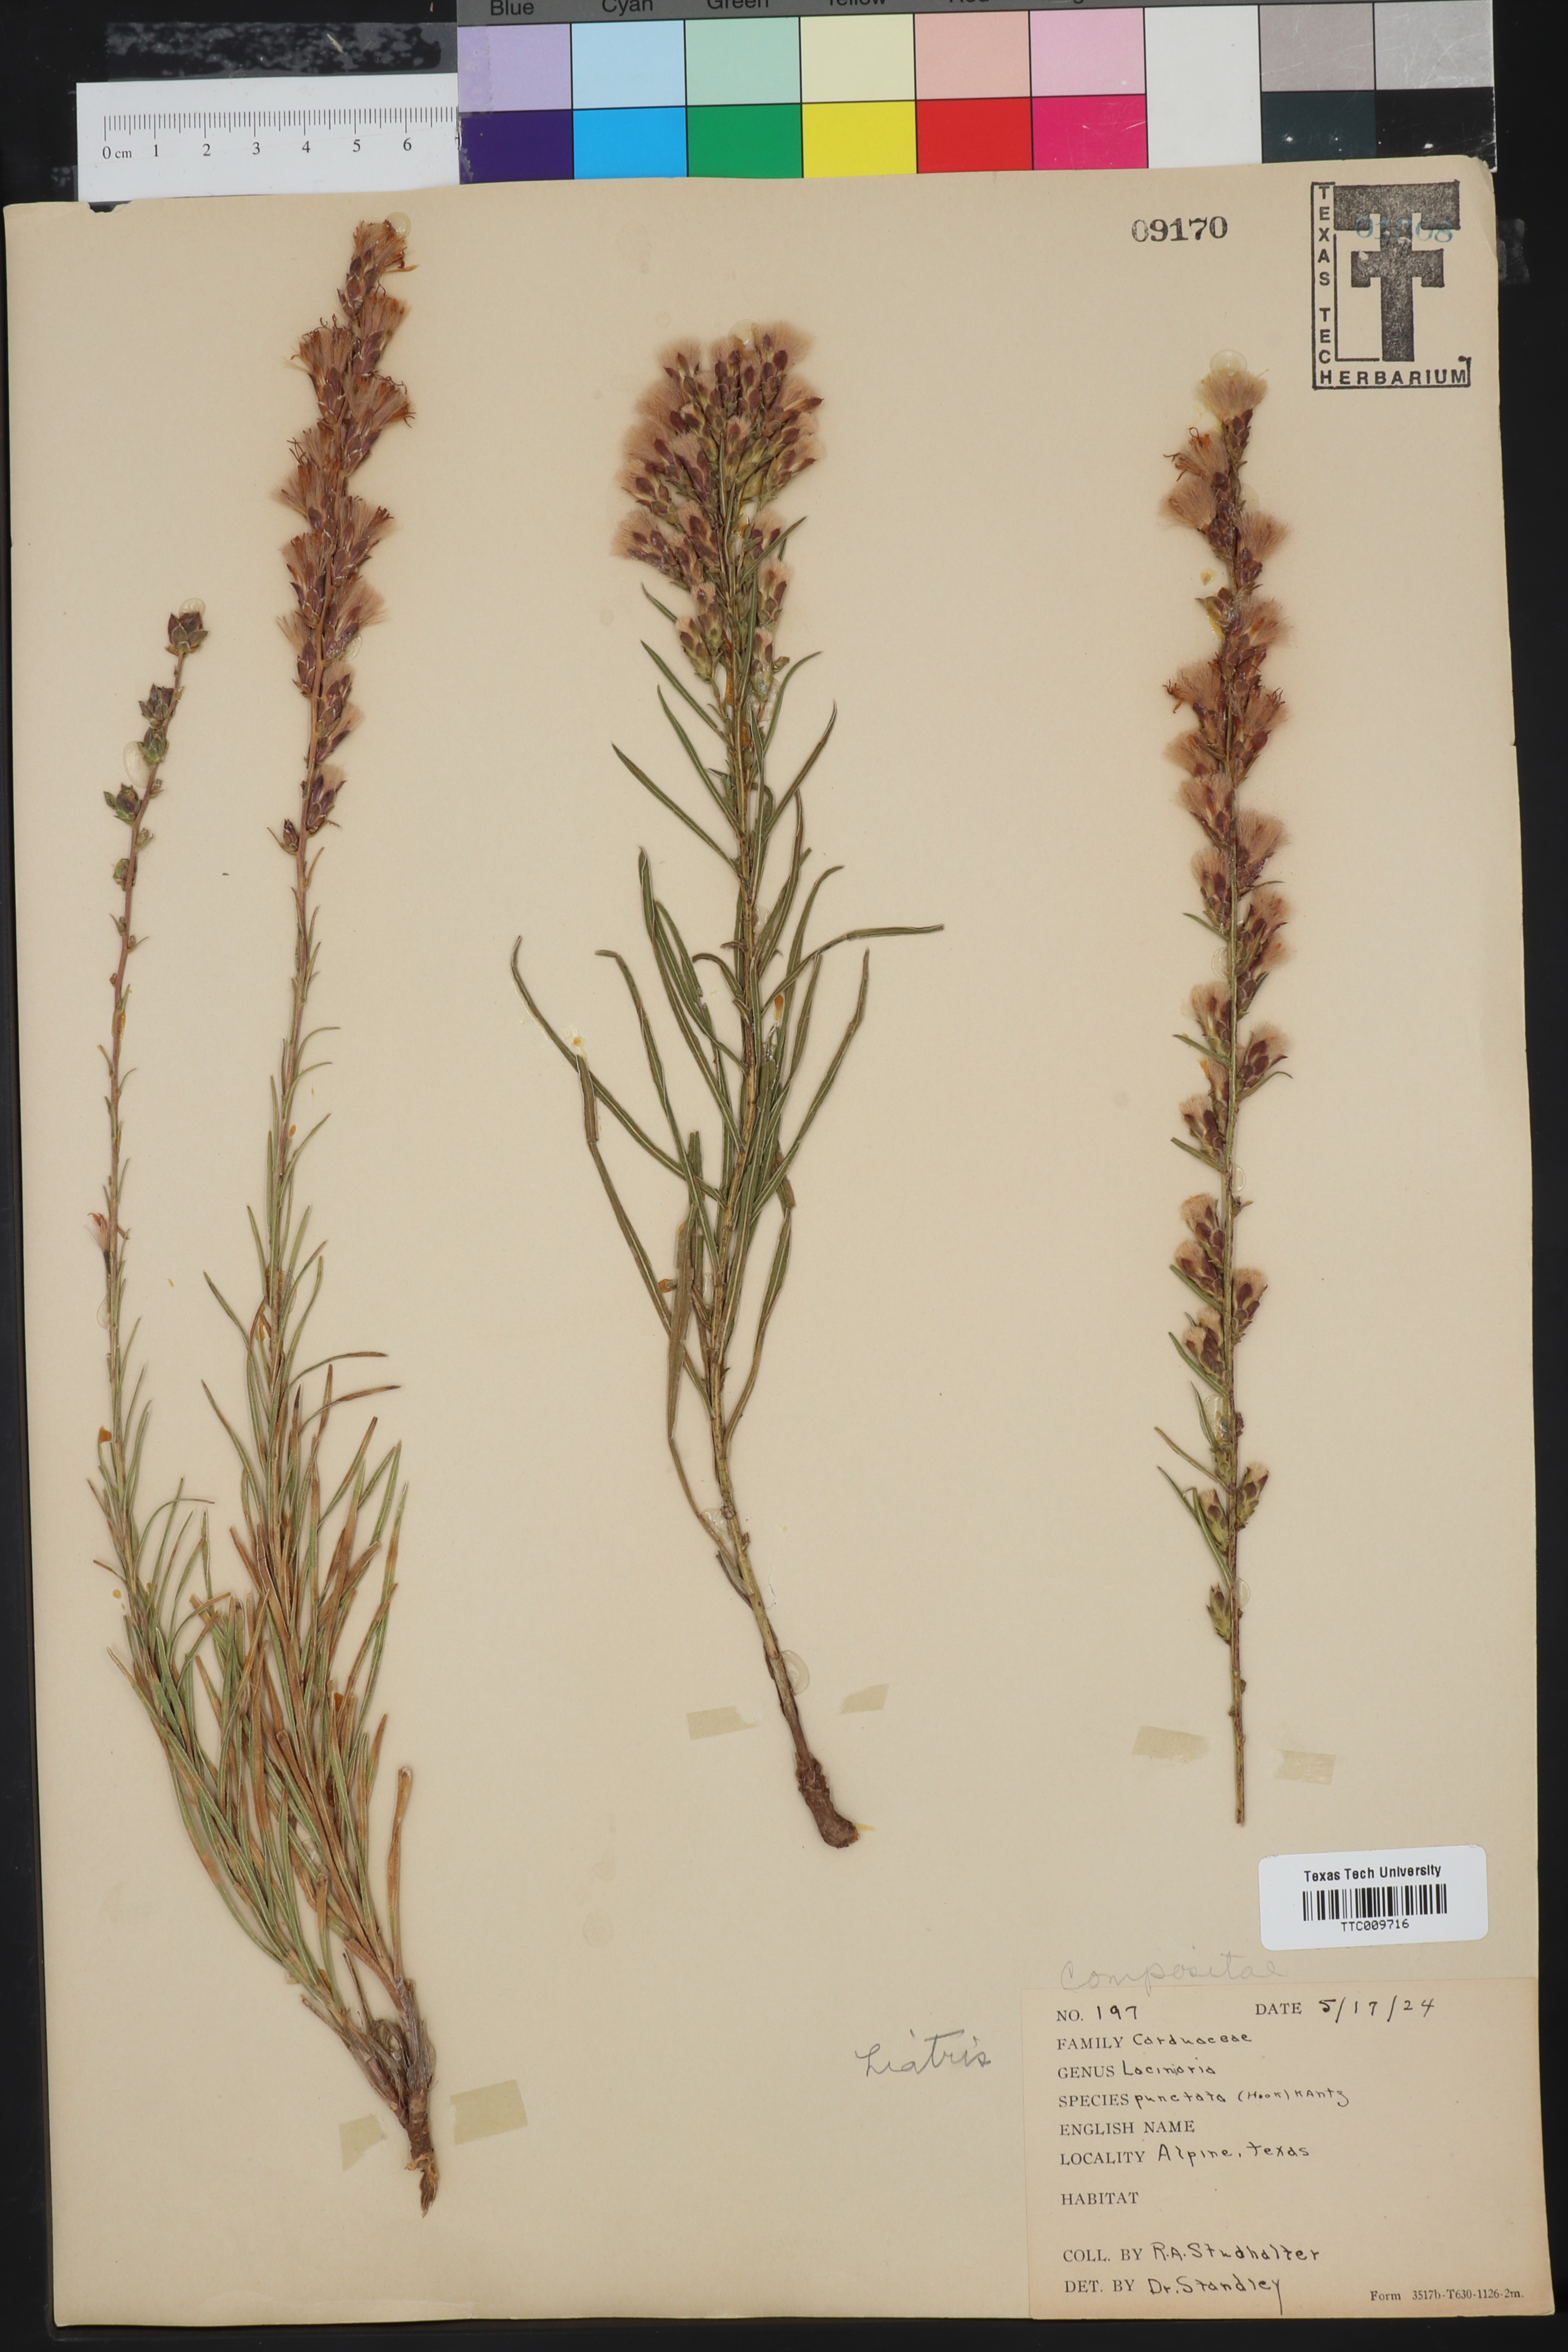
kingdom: Plantae
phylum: Tracheophyta
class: Magnoliopsida
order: Asterales
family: Asteraceae
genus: Liatris
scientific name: Liatris punctata
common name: Dotted gayfeather
